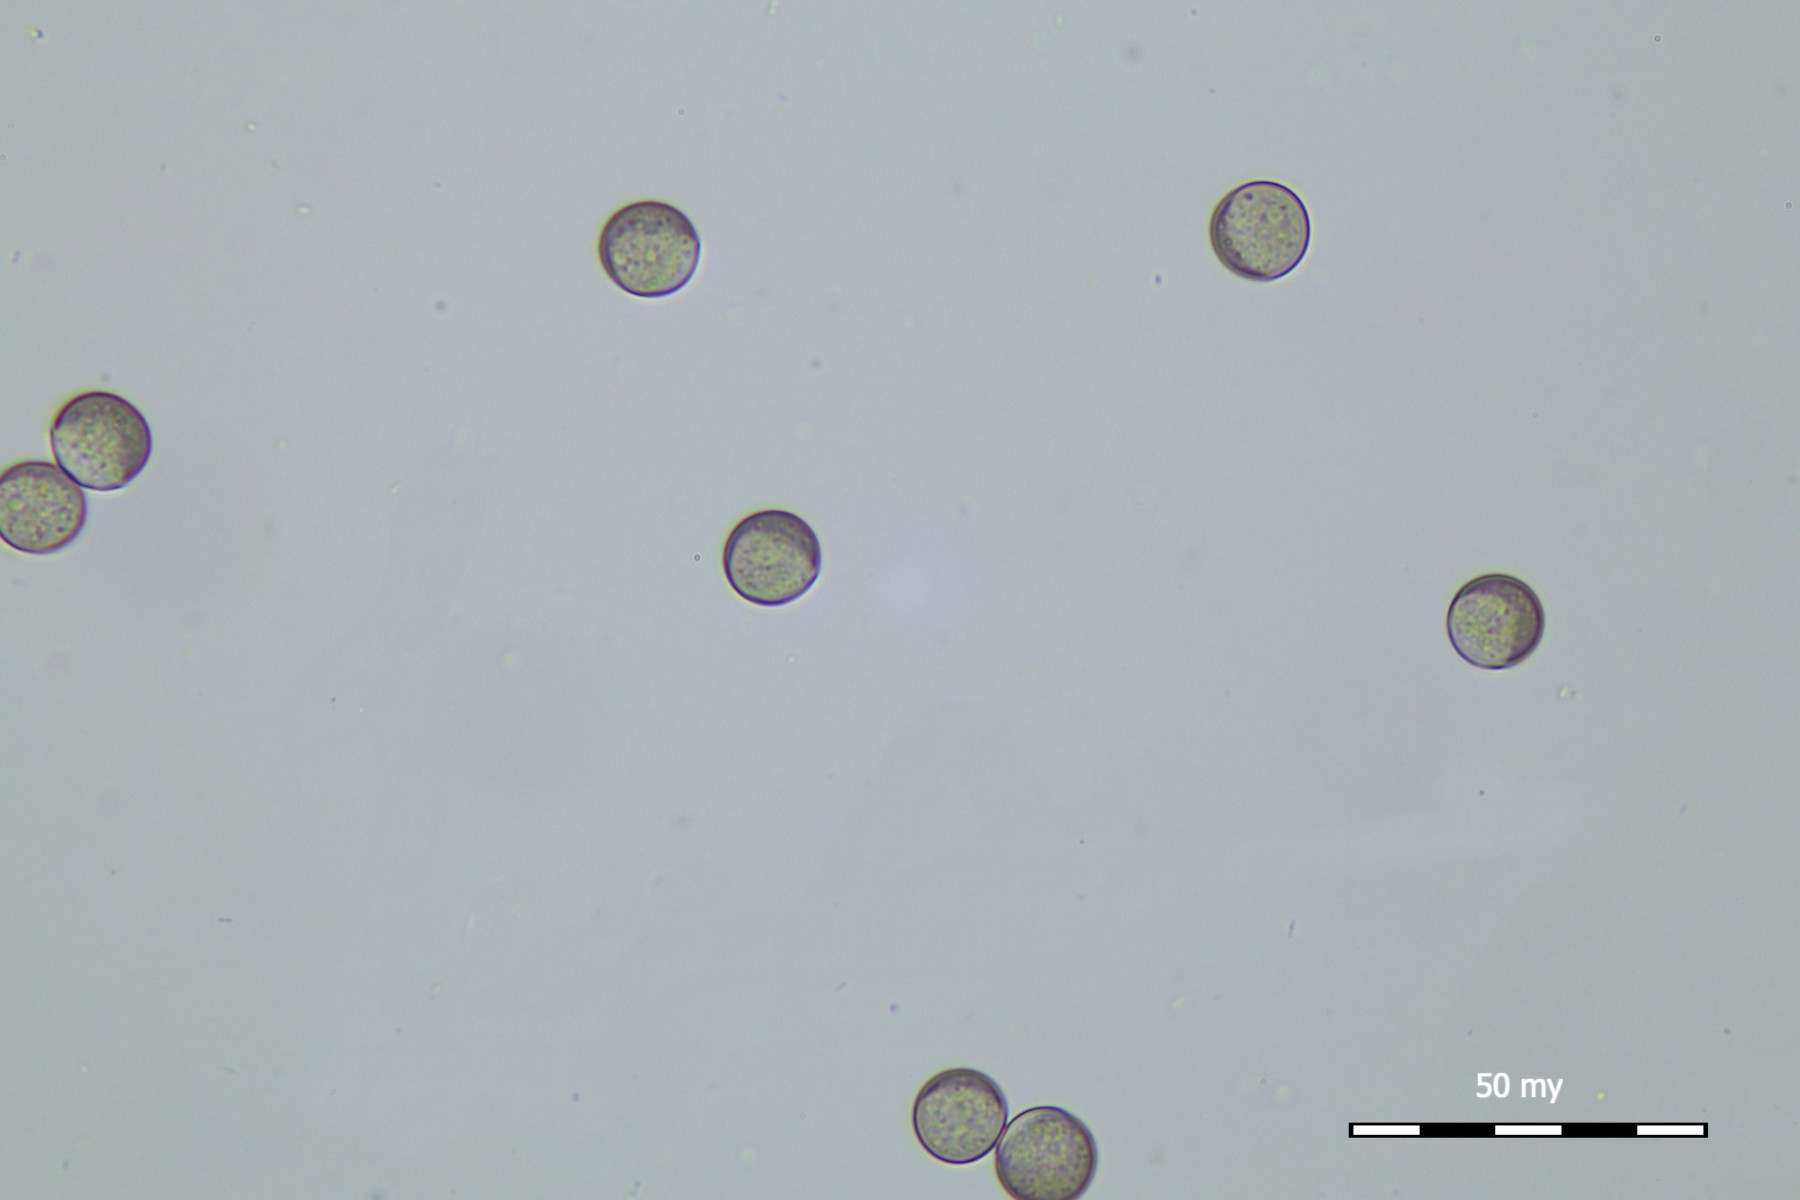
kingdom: Protozoa
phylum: Mycetozoa
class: Myxomycetes
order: Cribrariales
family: Liceaceae
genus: Licea
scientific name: Licea parasitica
